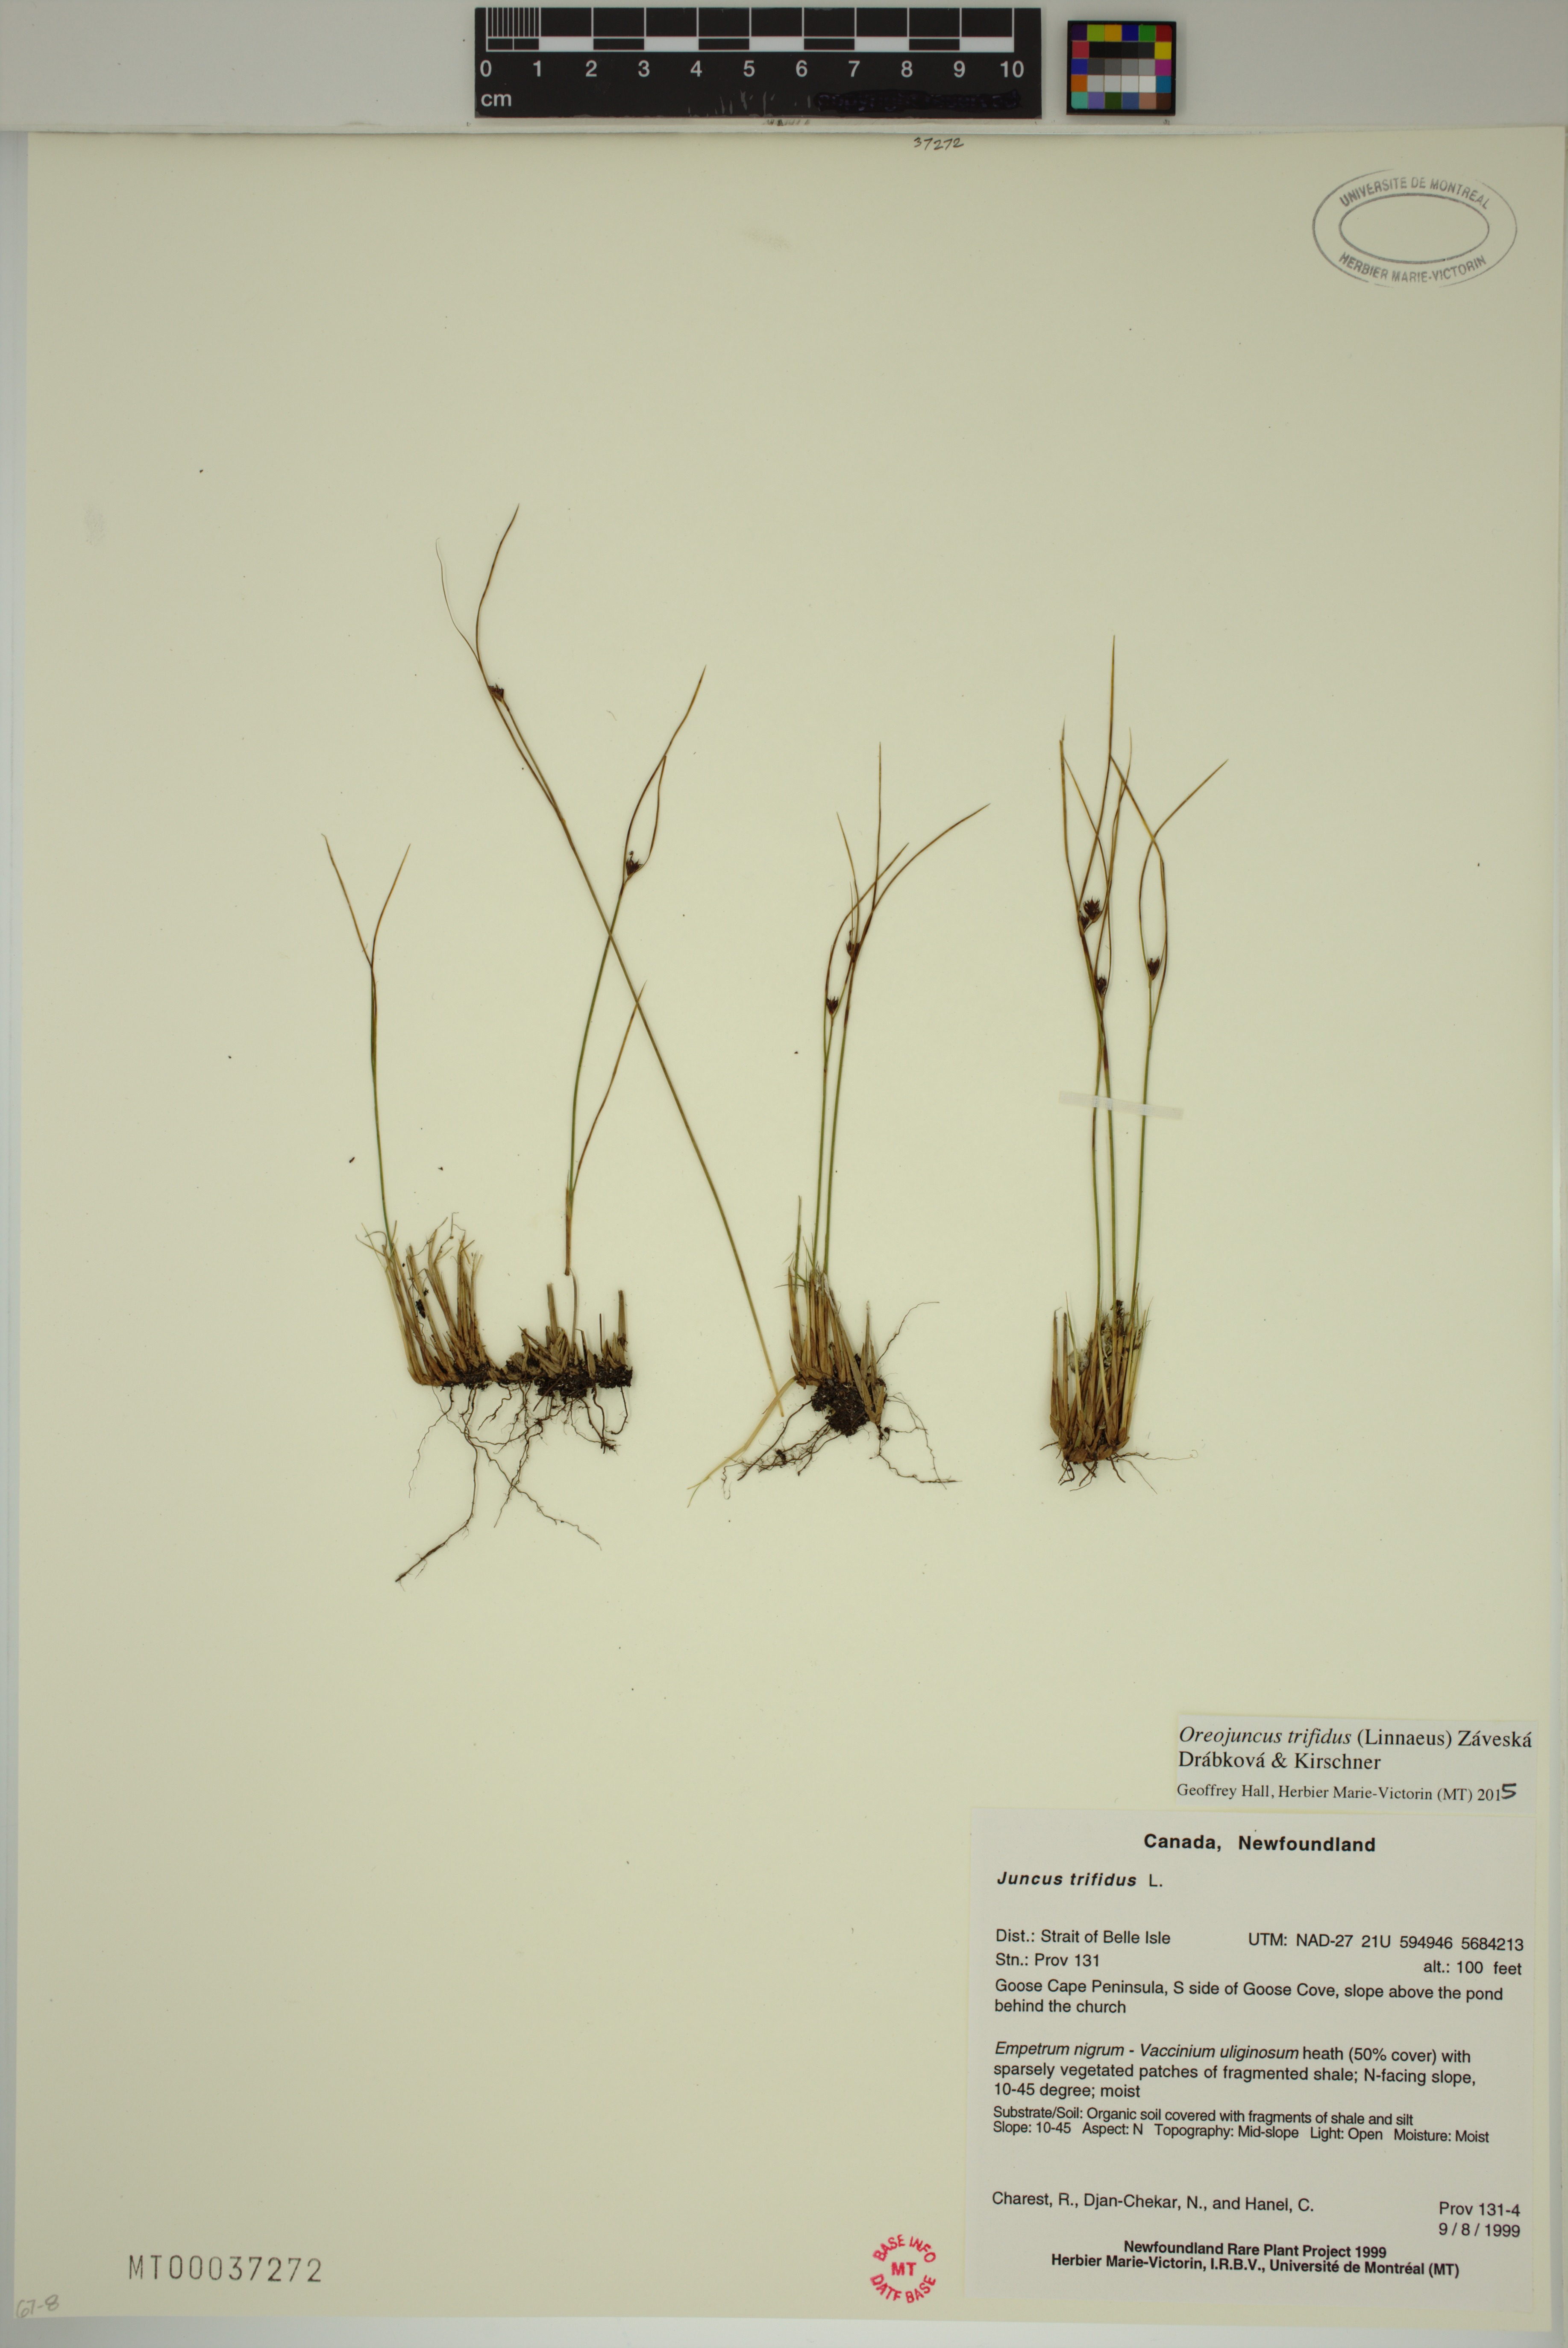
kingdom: Plantae
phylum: Tracheophyta
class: Liliopsida
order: Poales
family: Juncaceae
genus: Oreojuncus
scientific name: Oreojuncus trifidus
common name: Highland rush
